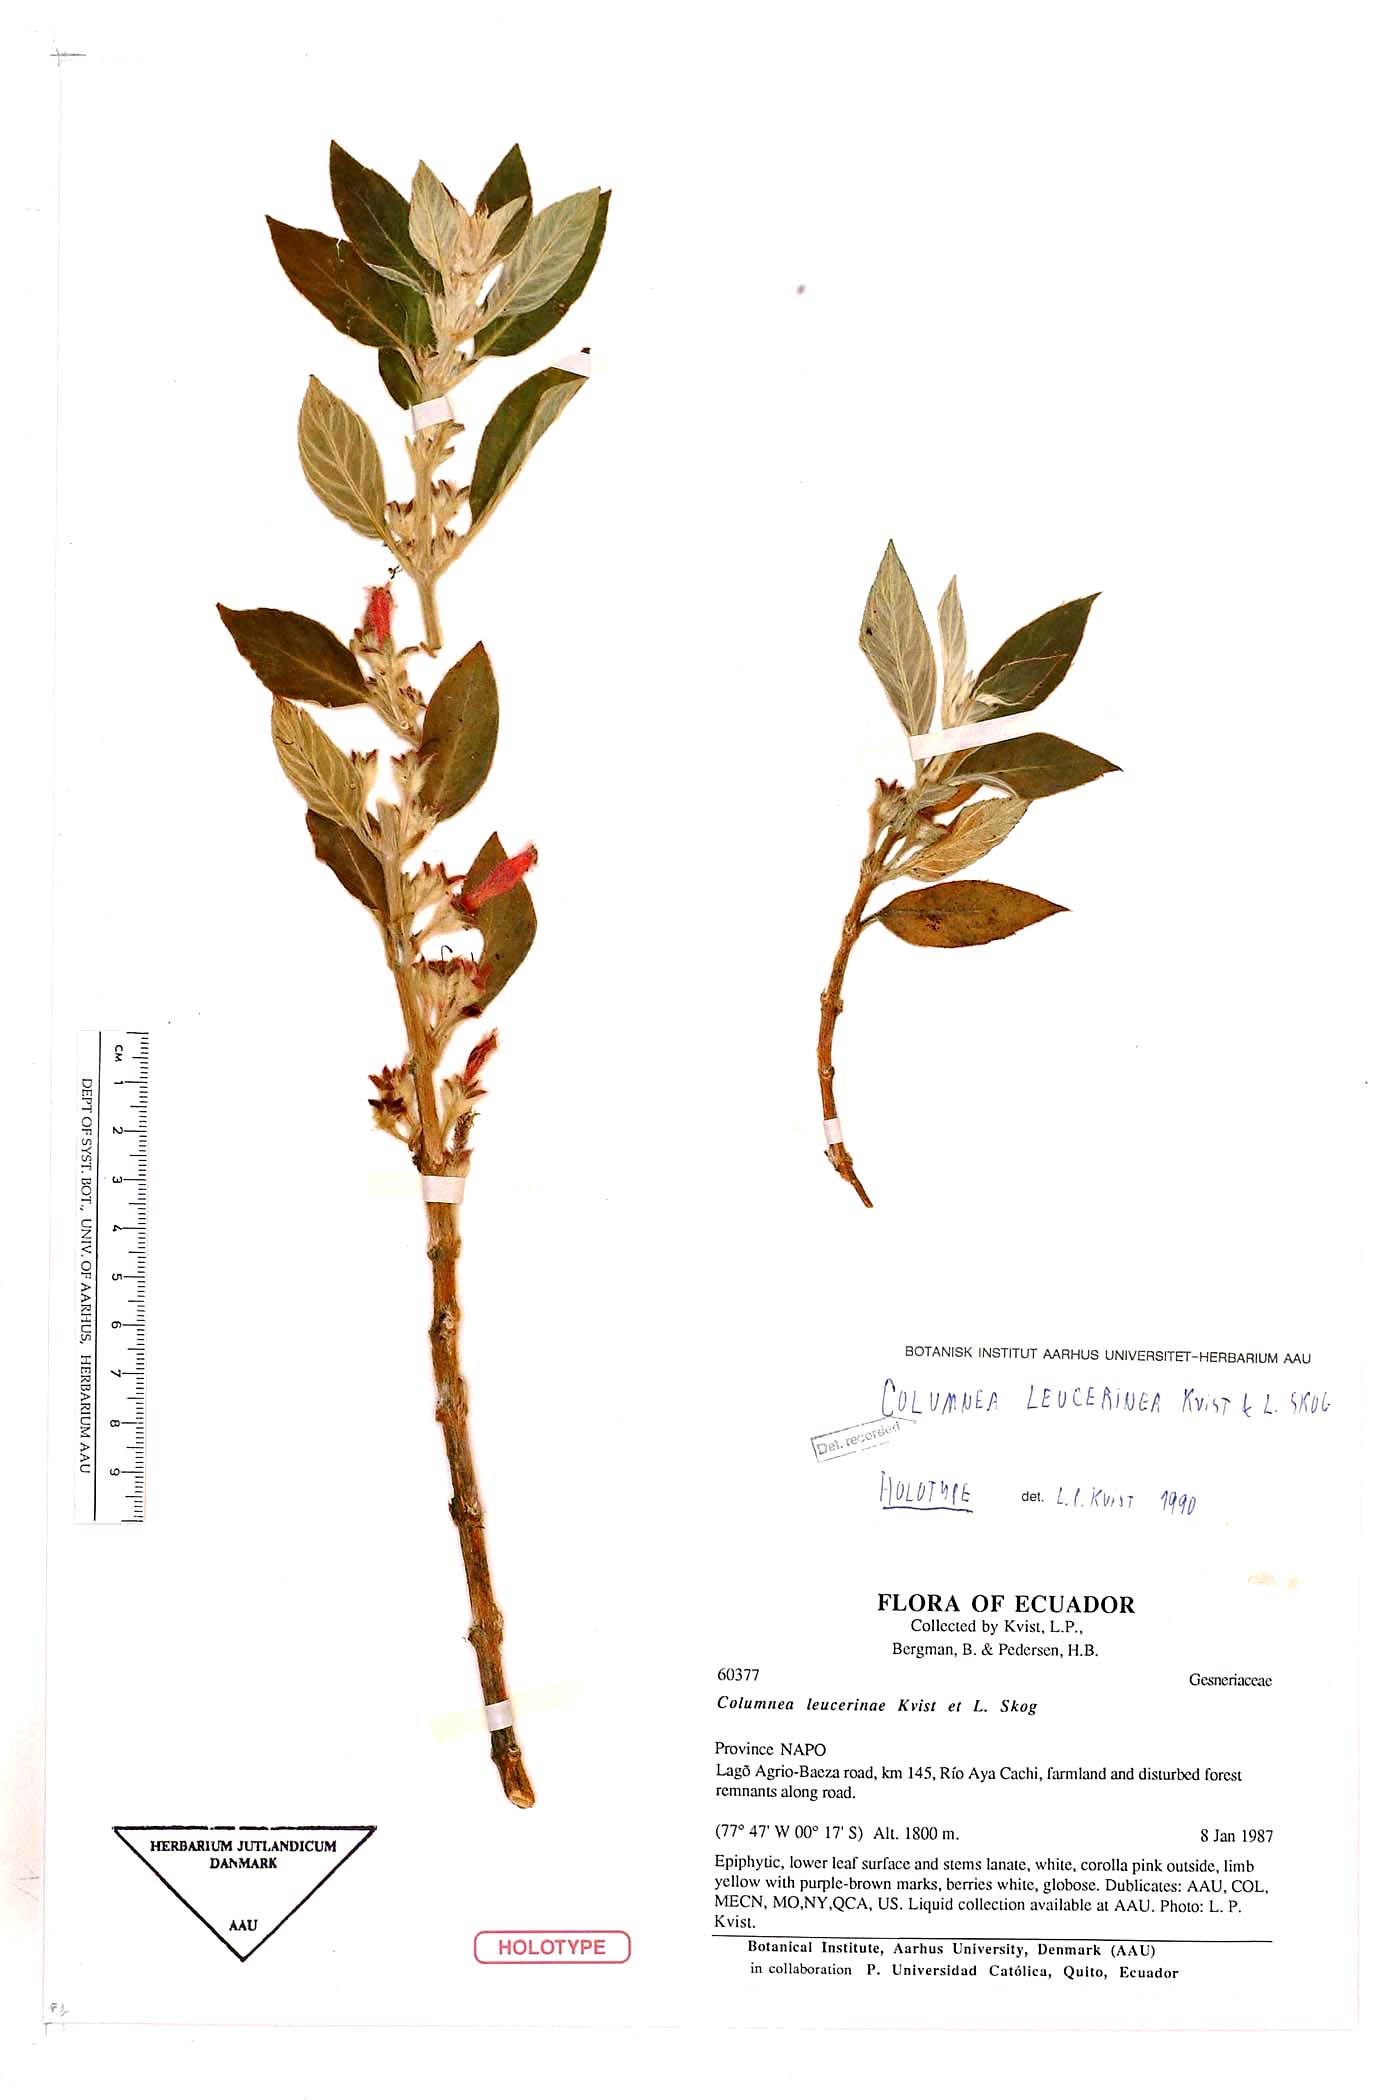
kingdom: Plantae
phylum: Tracheophyta
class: Magnoliopsida
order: Lamiales
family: Gesneriaceae
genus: Columnea
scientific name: Columnea rileyi
